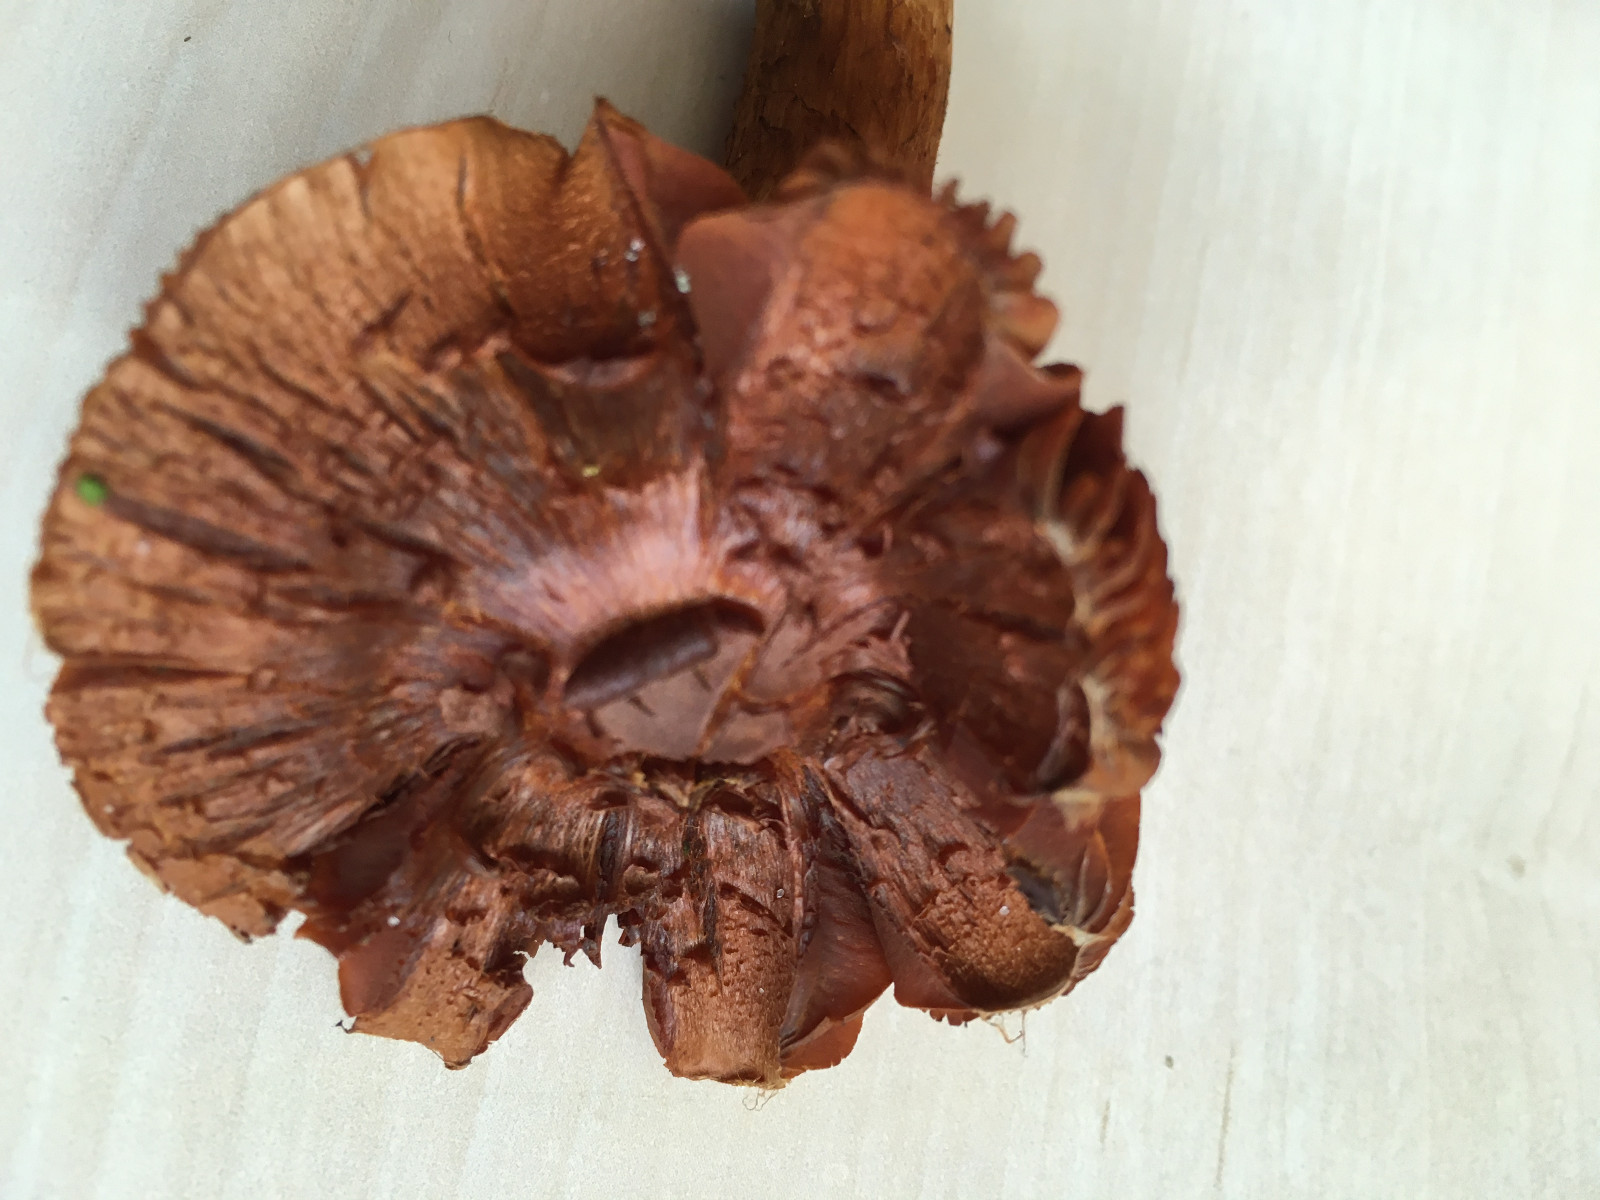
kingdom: Fungi
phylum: Basidiomycota
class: Agaricomycetes
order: Agaricales
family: Cortinariaceae
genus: Cortinarius
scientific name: Cortinarius rubellus
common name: puklet gift-slørhat
